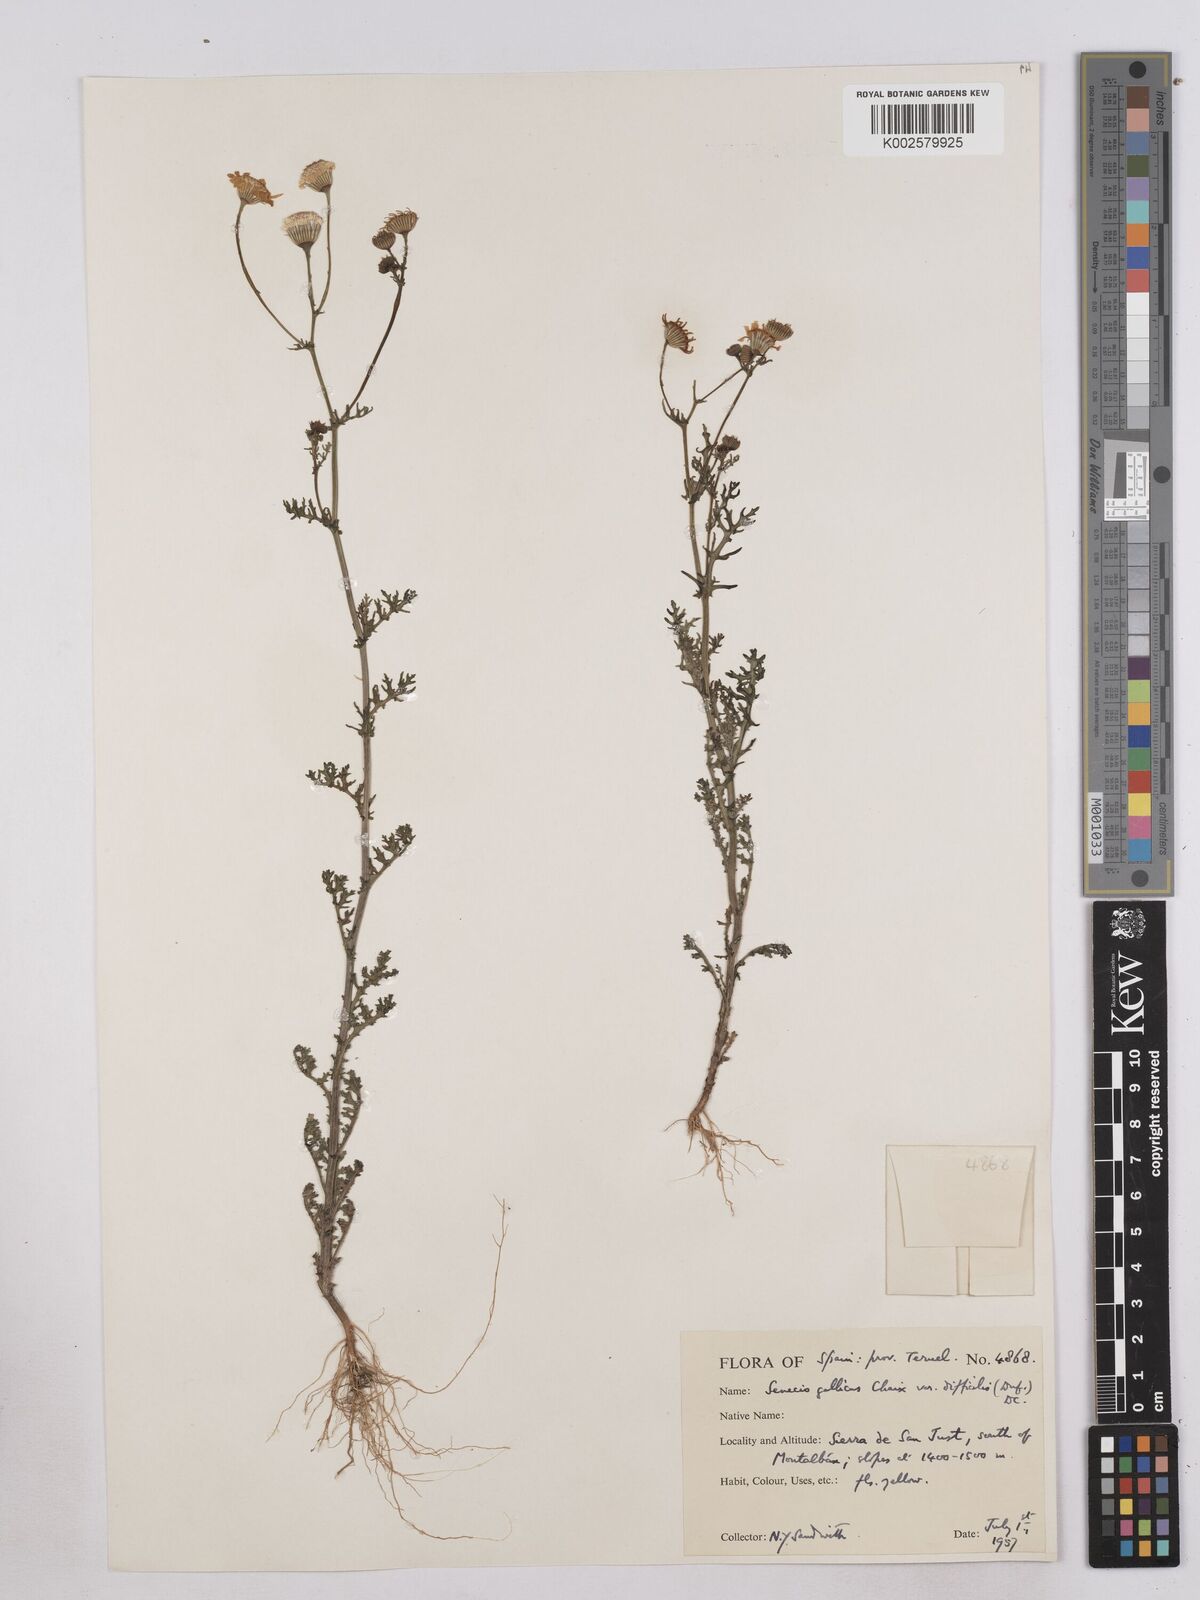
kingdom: Plantae
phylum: Tracheophyta
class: Magnoliopsida
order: Asterales
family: Asteraceae
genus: Senecio
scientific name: Senecio gallicus
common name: French groundsel
